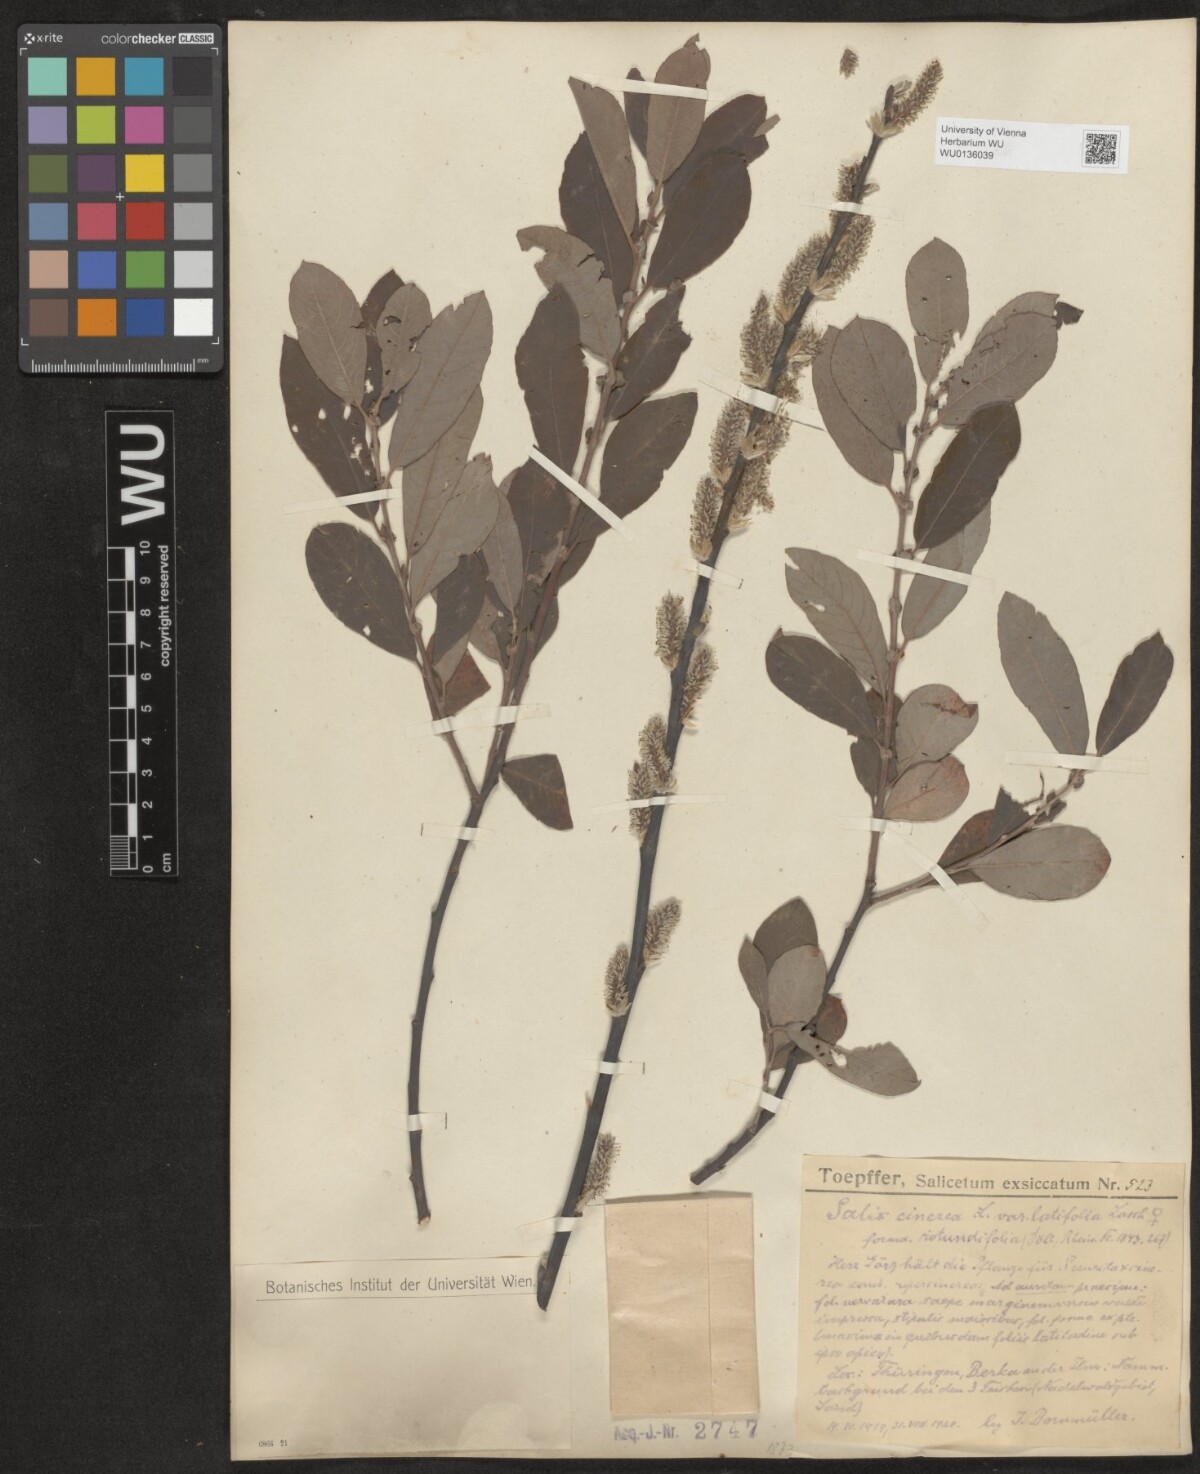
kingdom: Plantae
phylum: Tracheophyta
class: Magnoliopsida
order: Malpighiales
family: Salicaceae
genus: Salix
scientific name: Salix cinerea
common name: Common sallow
